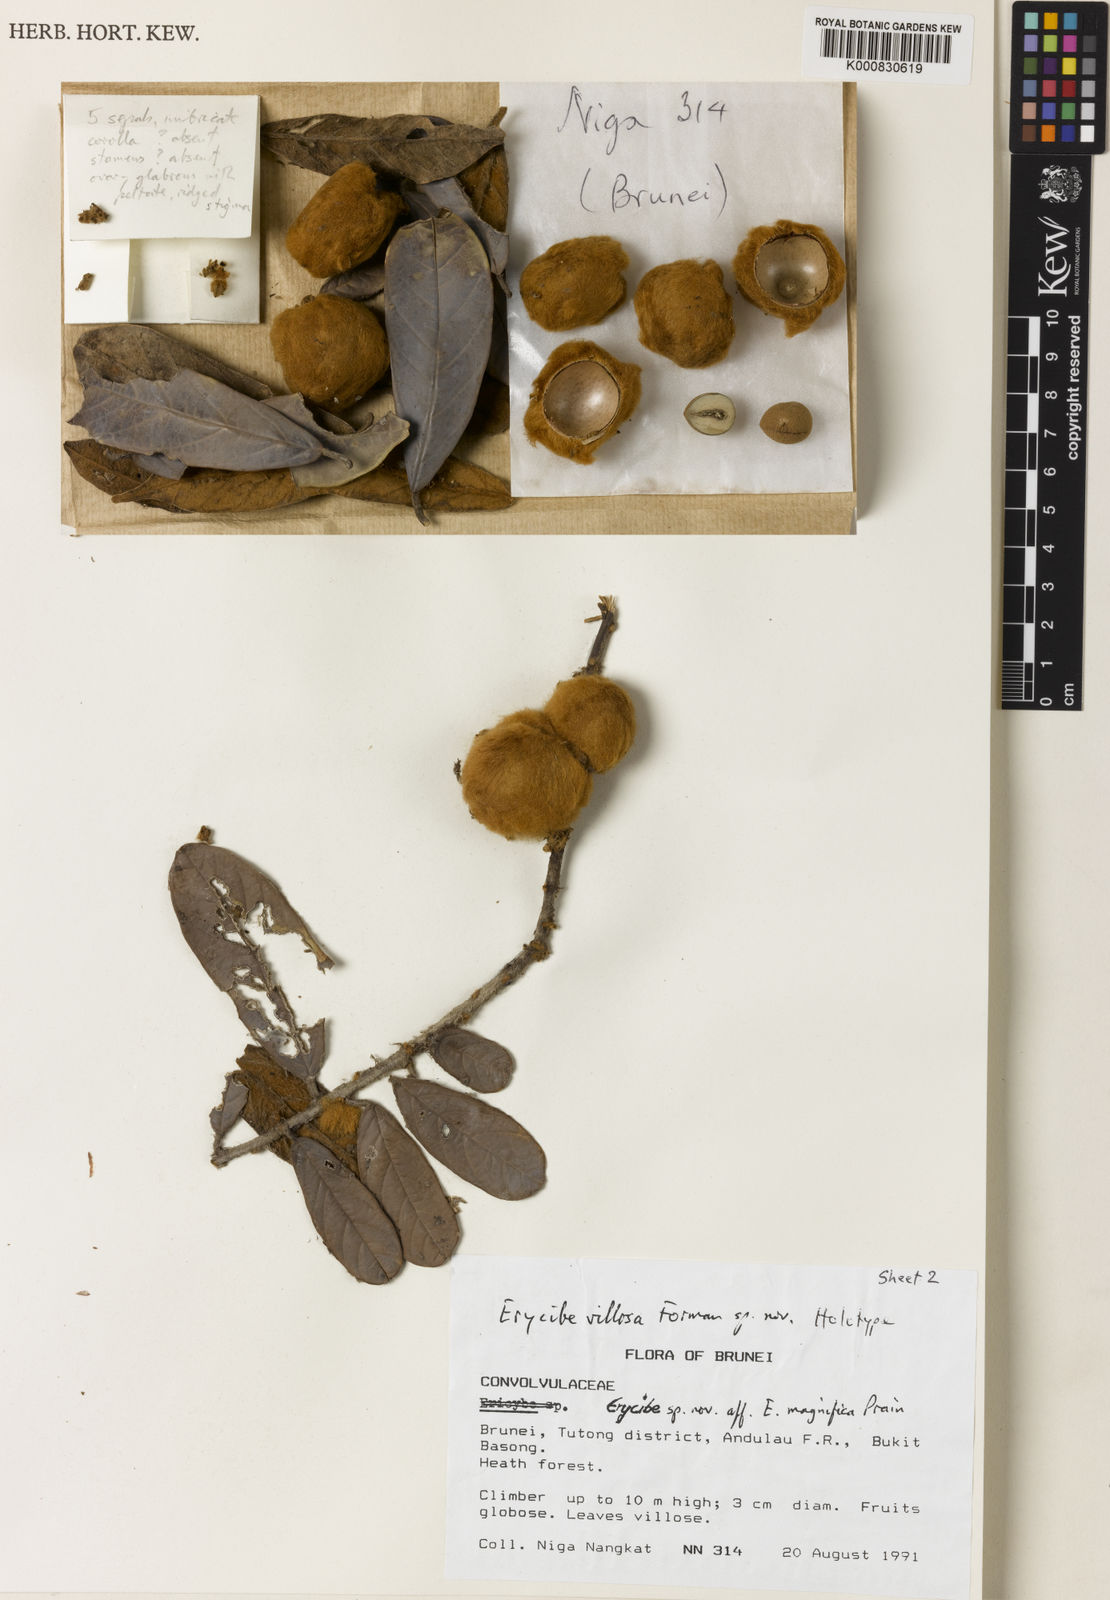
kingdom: Plantae
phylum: Tracheophyta
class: Magnoliopsida
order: Solanales
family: Convolvulaceae
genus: Erycibe
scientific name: Erycibe villosa
